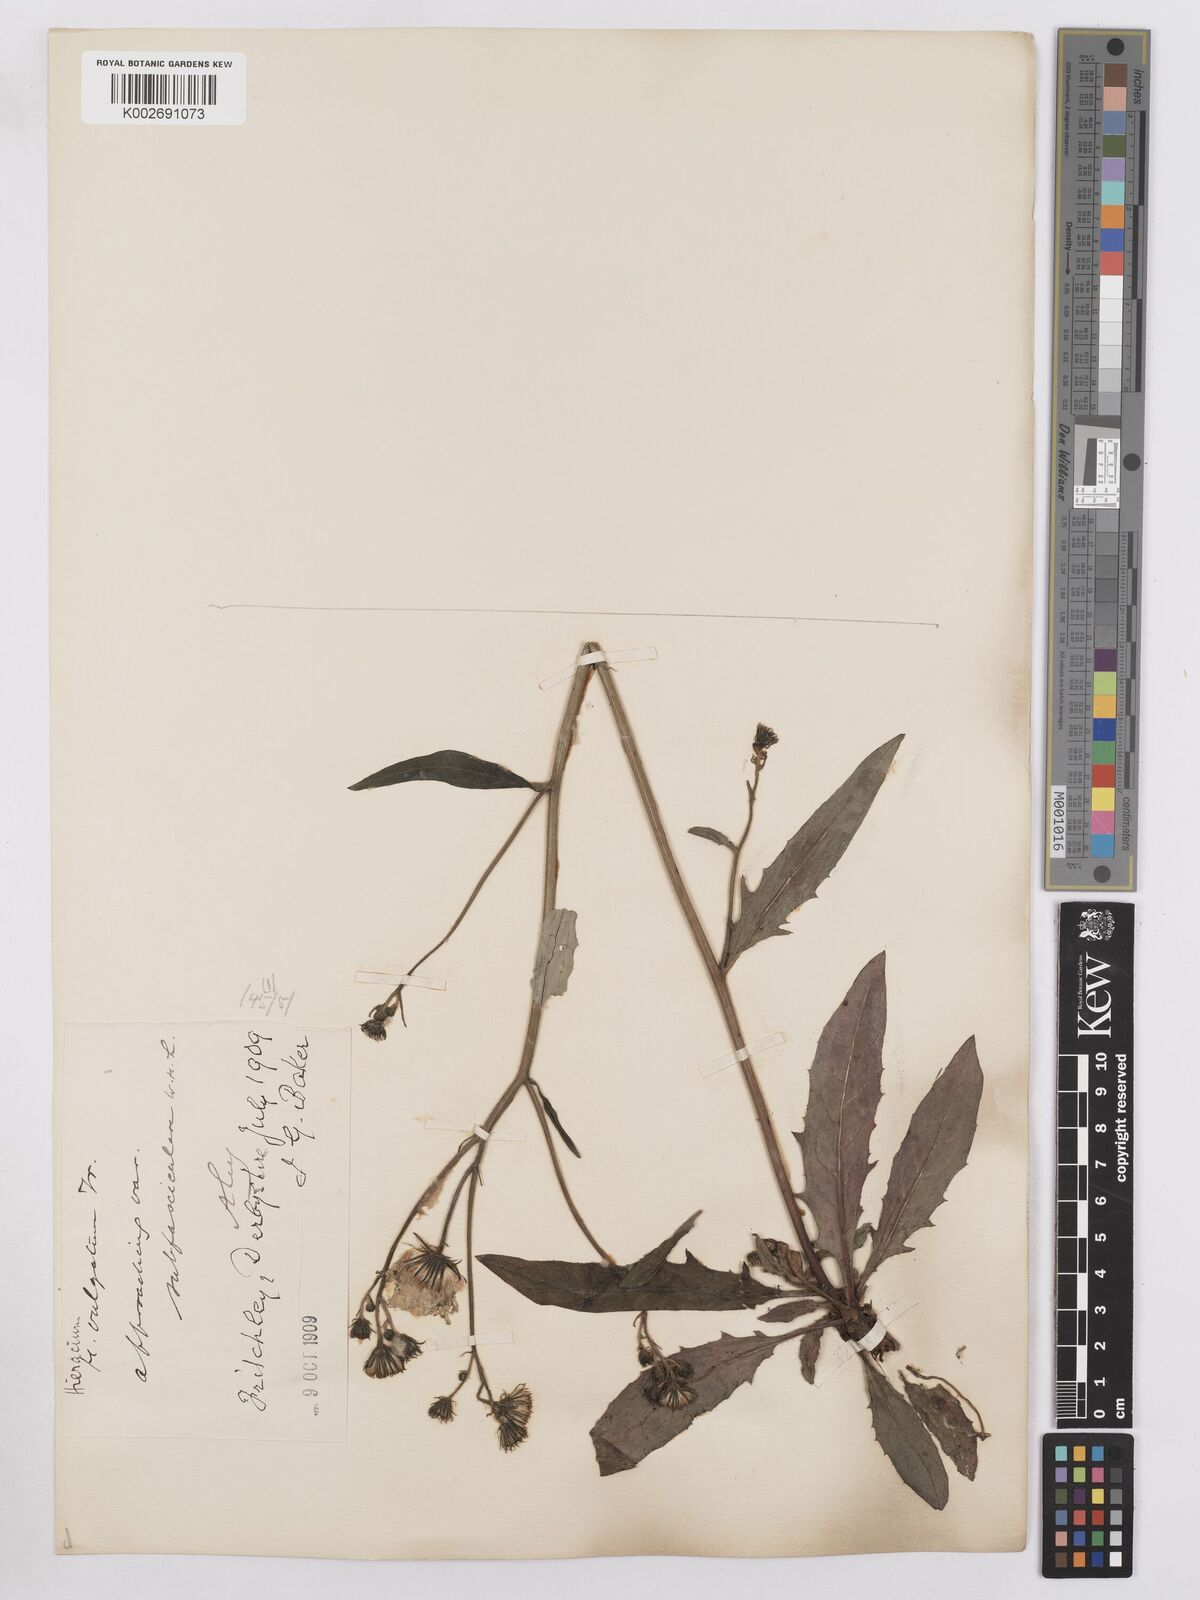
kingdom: Plantae
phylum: Tracheophyta
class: Magnoliopsida
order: Asterales
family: Asteraceae
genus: Hieracium
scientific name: Hieracium lachenalii
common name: Common hawkweed
